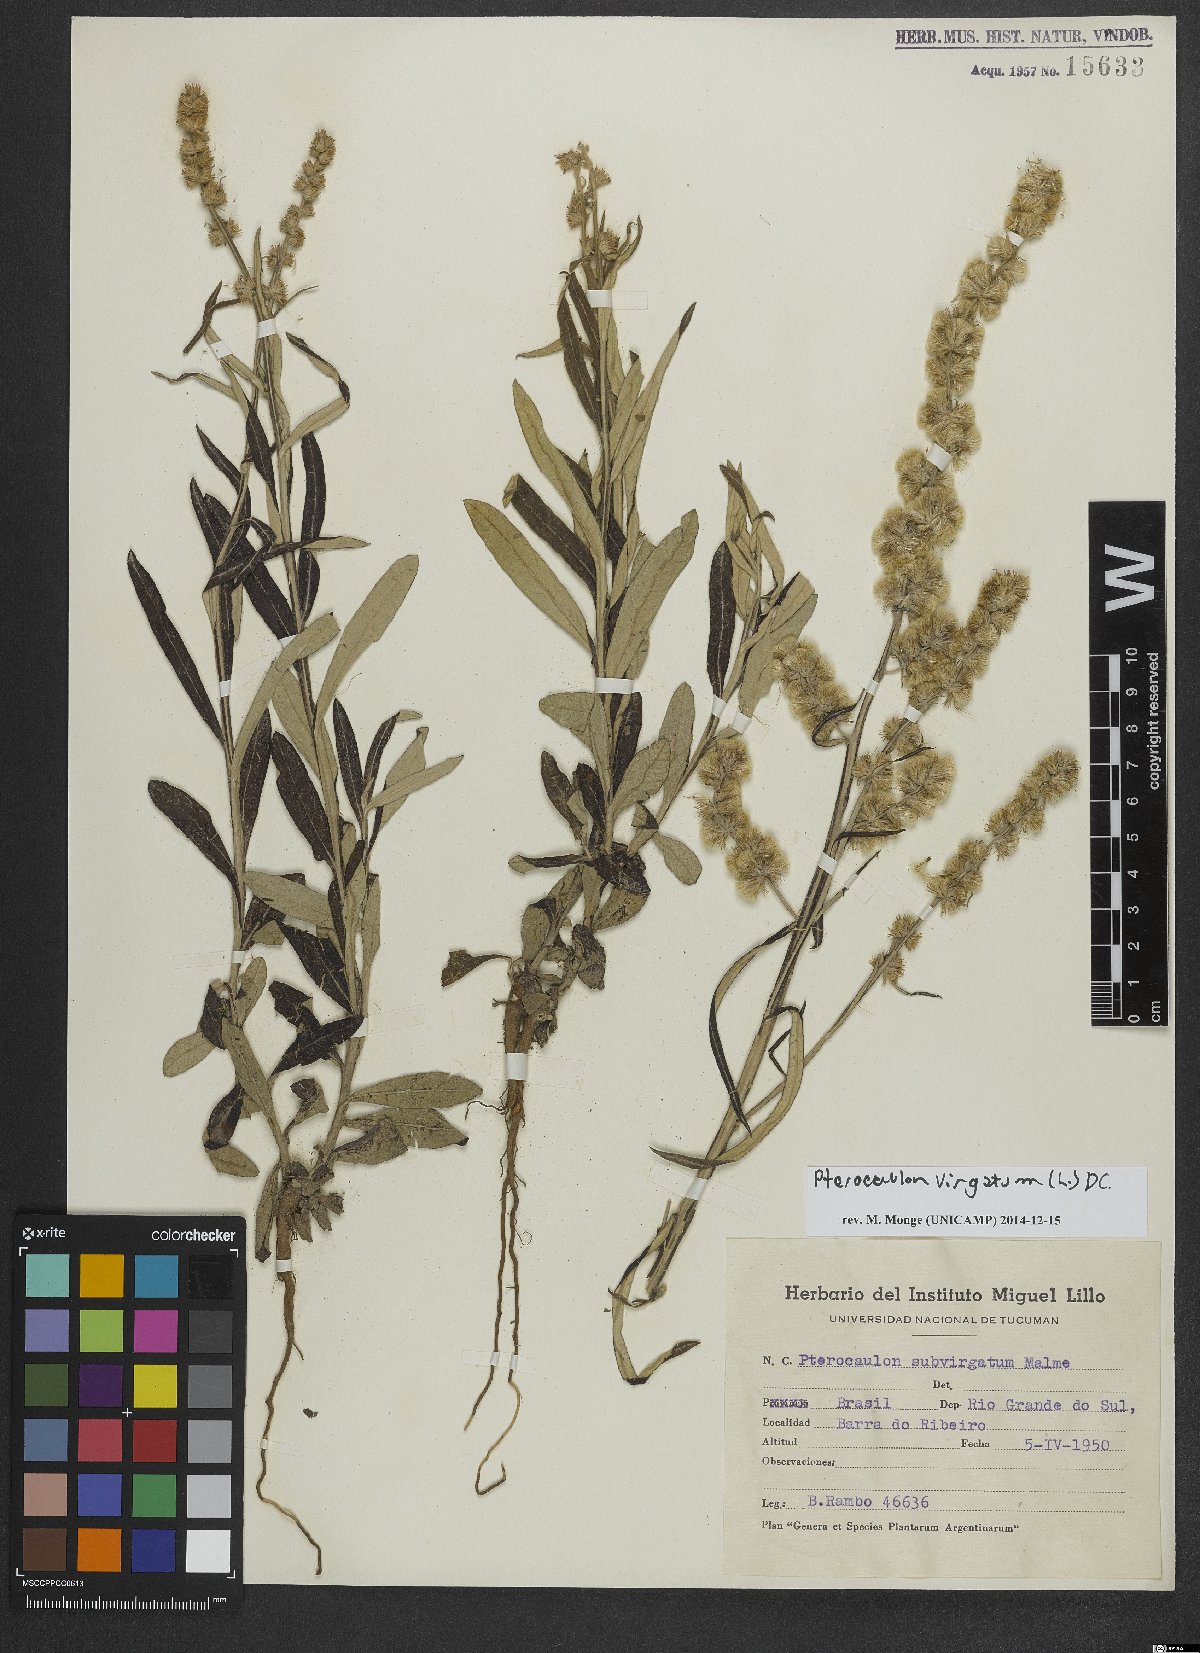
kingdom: Plantae
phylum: Tracheophyta
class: Magnoliopsida
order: Asterales
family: Asteraceae
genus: Pterocaulon
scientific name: Pterocaulon virgatum
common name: Wand blackroot
